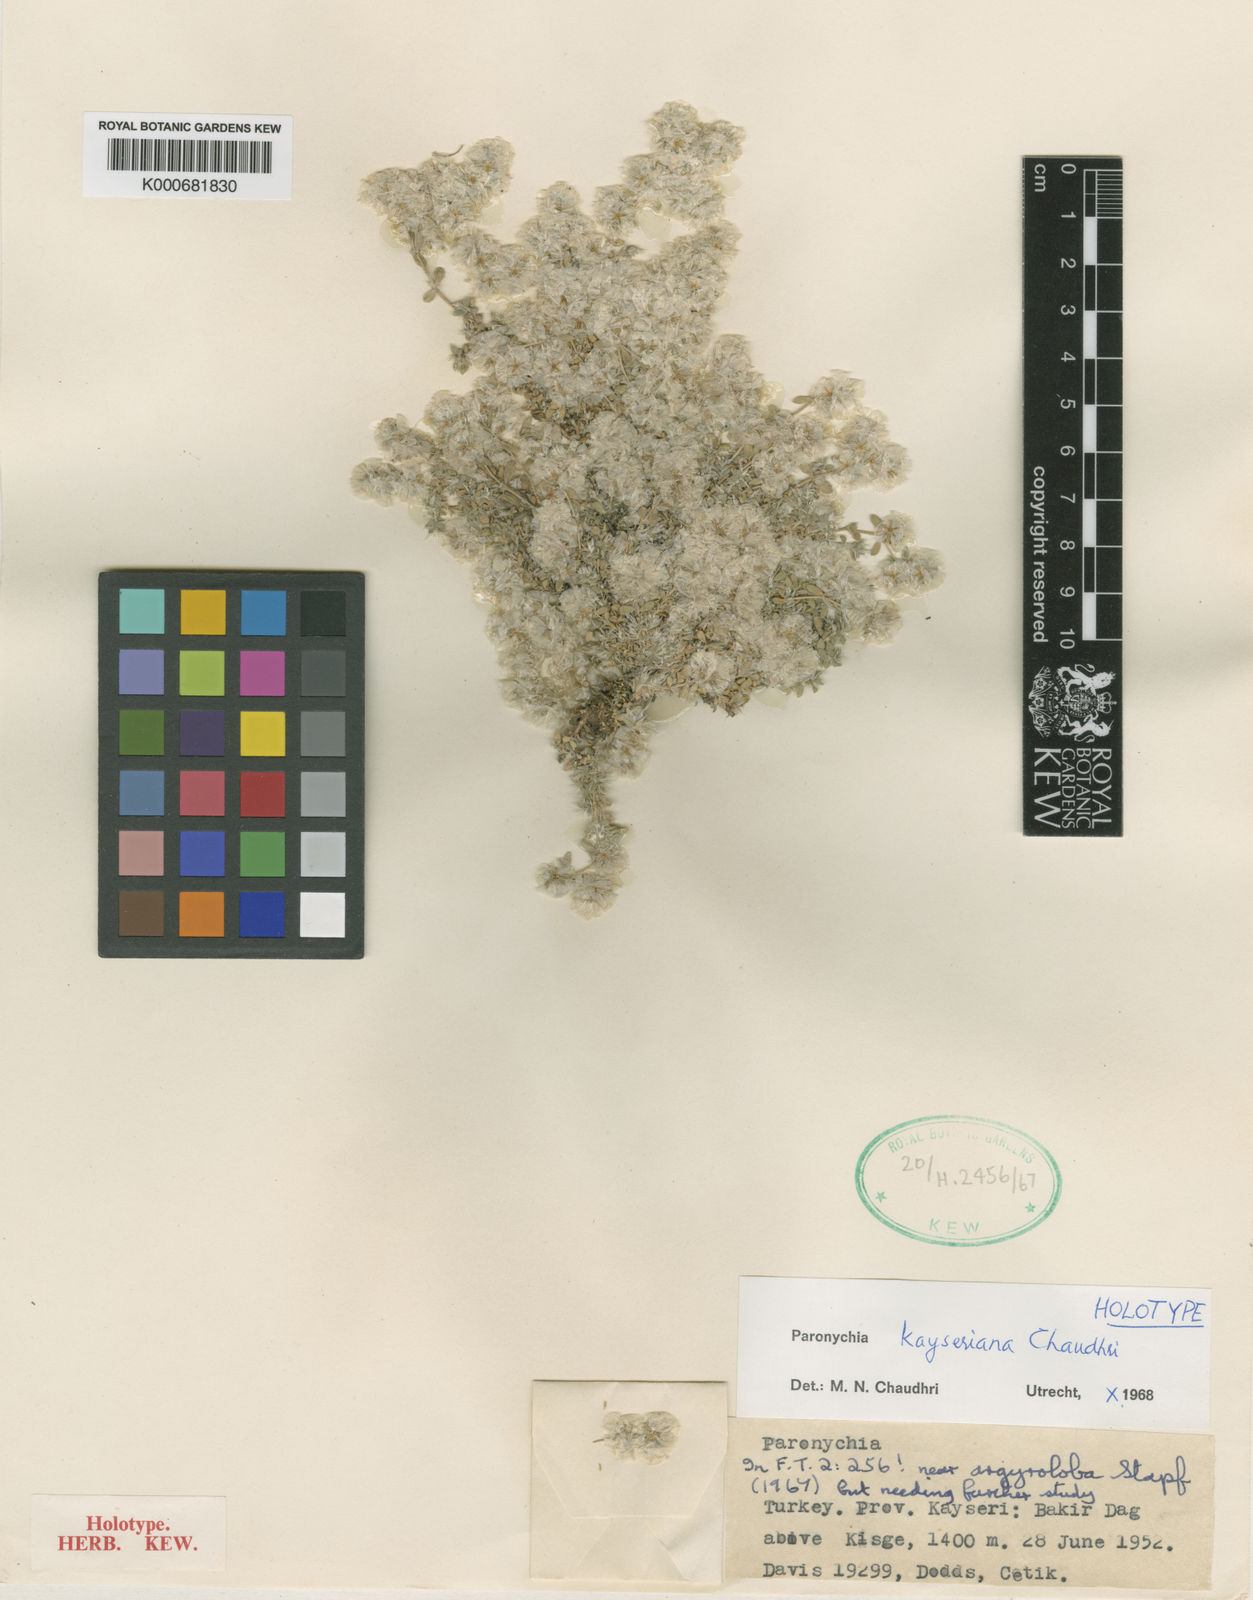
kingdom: Plantae
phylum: Tracheophyta
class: Magnoliopsida
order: Caryophyllales
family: Caryophyllaceae
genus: Paronychia
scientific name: Paronychia kayseriana
